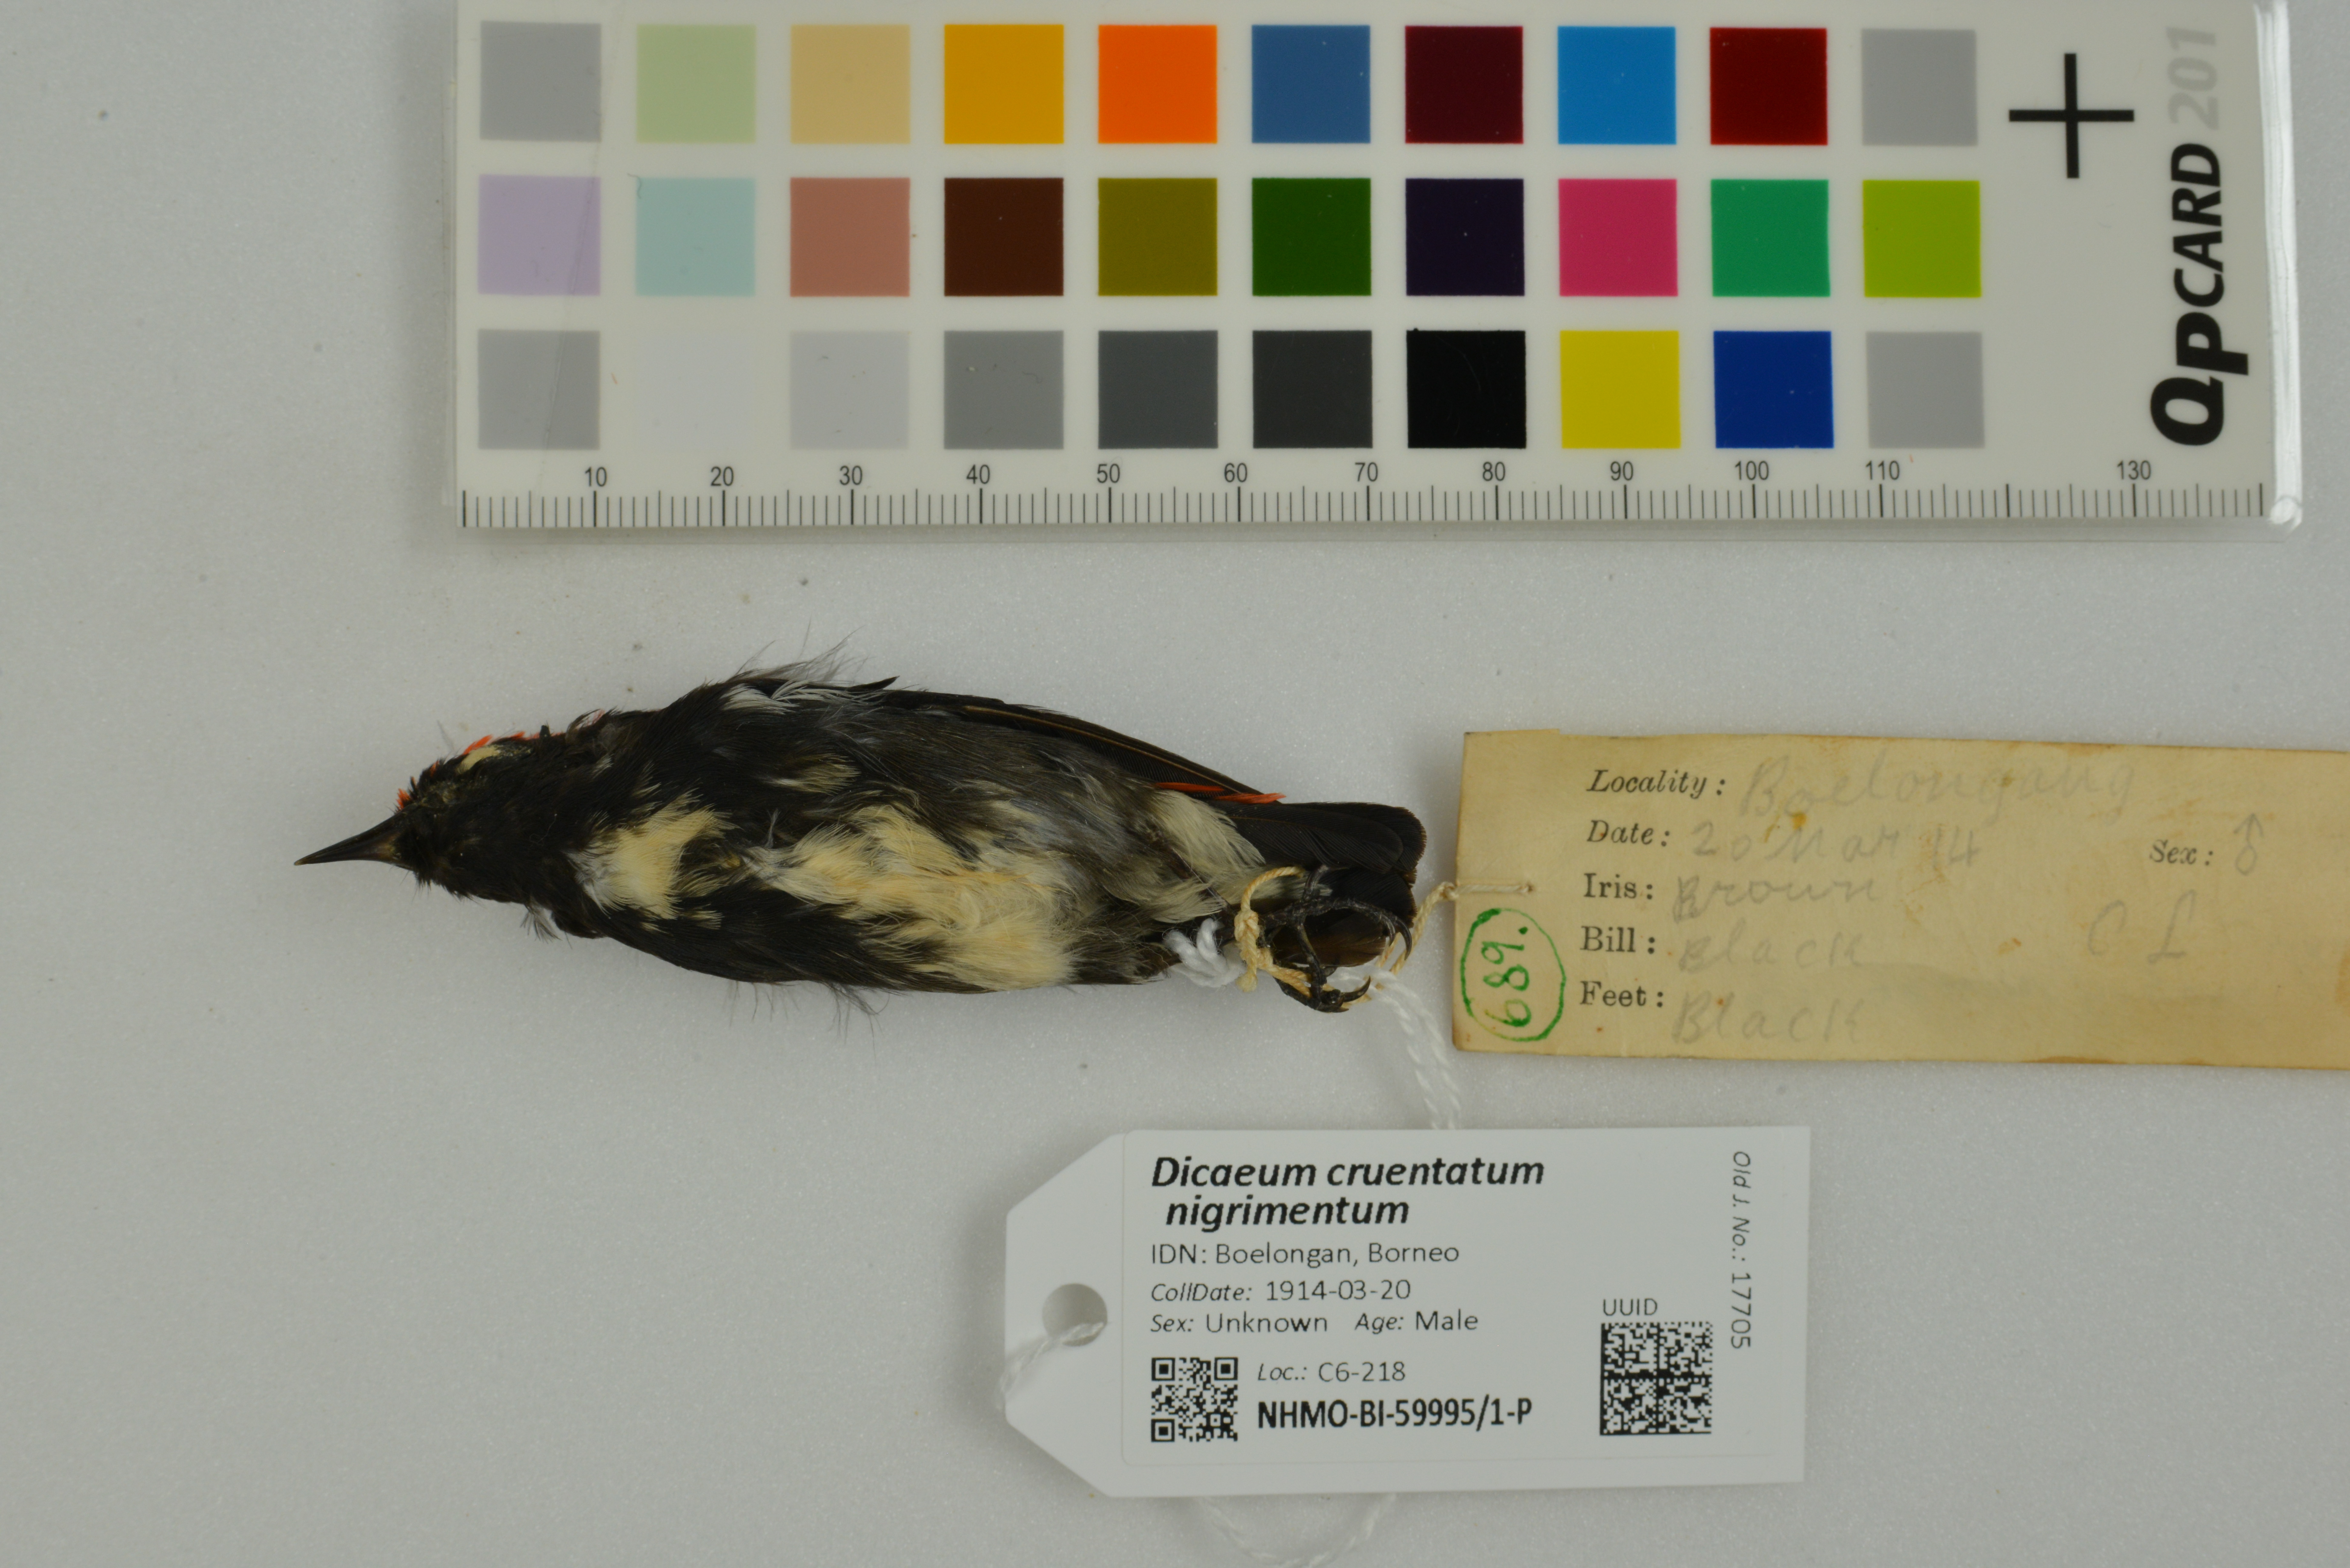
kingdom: Animalia
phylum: Chordata
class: Aves
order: Passeriformes
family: Dicaeidae
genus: Dicaeum
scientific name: Dicaeum cruentatum
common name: Scarlet-backed flowerpecker
